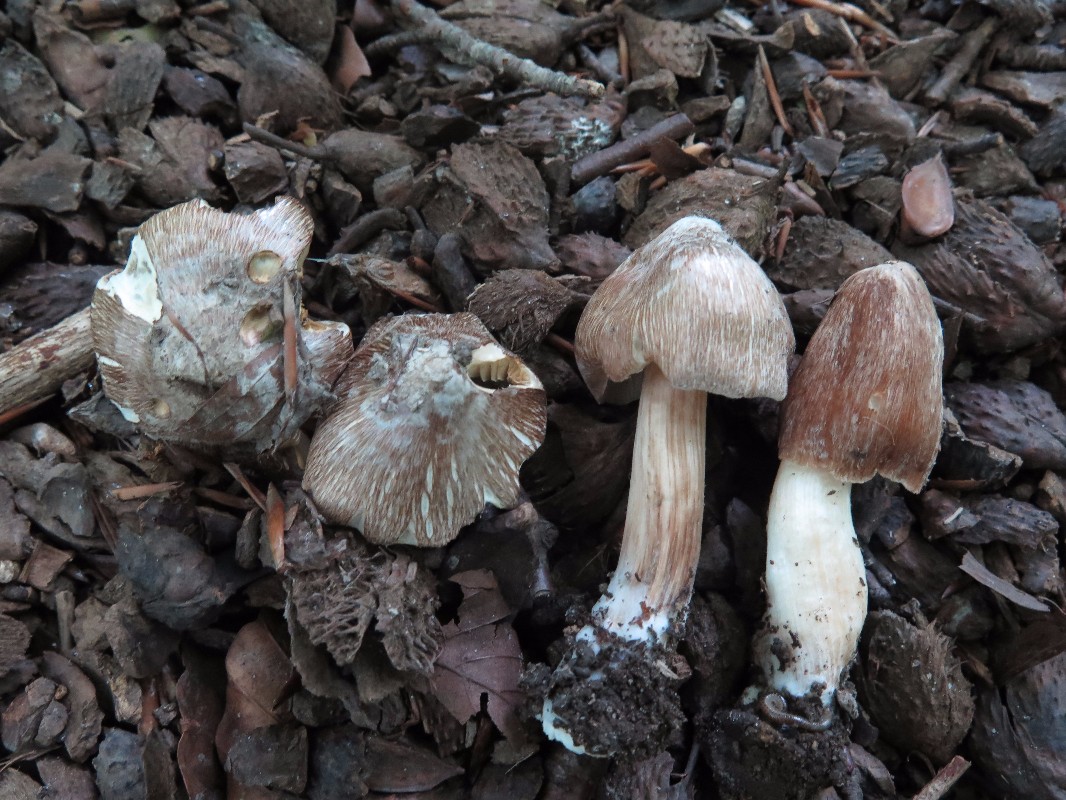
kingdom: Fungi
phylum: Basidiomycota
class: Agaricomycetes
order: Agaricales
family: Inocybaceae
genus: Inosperma
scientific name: Inosperma
